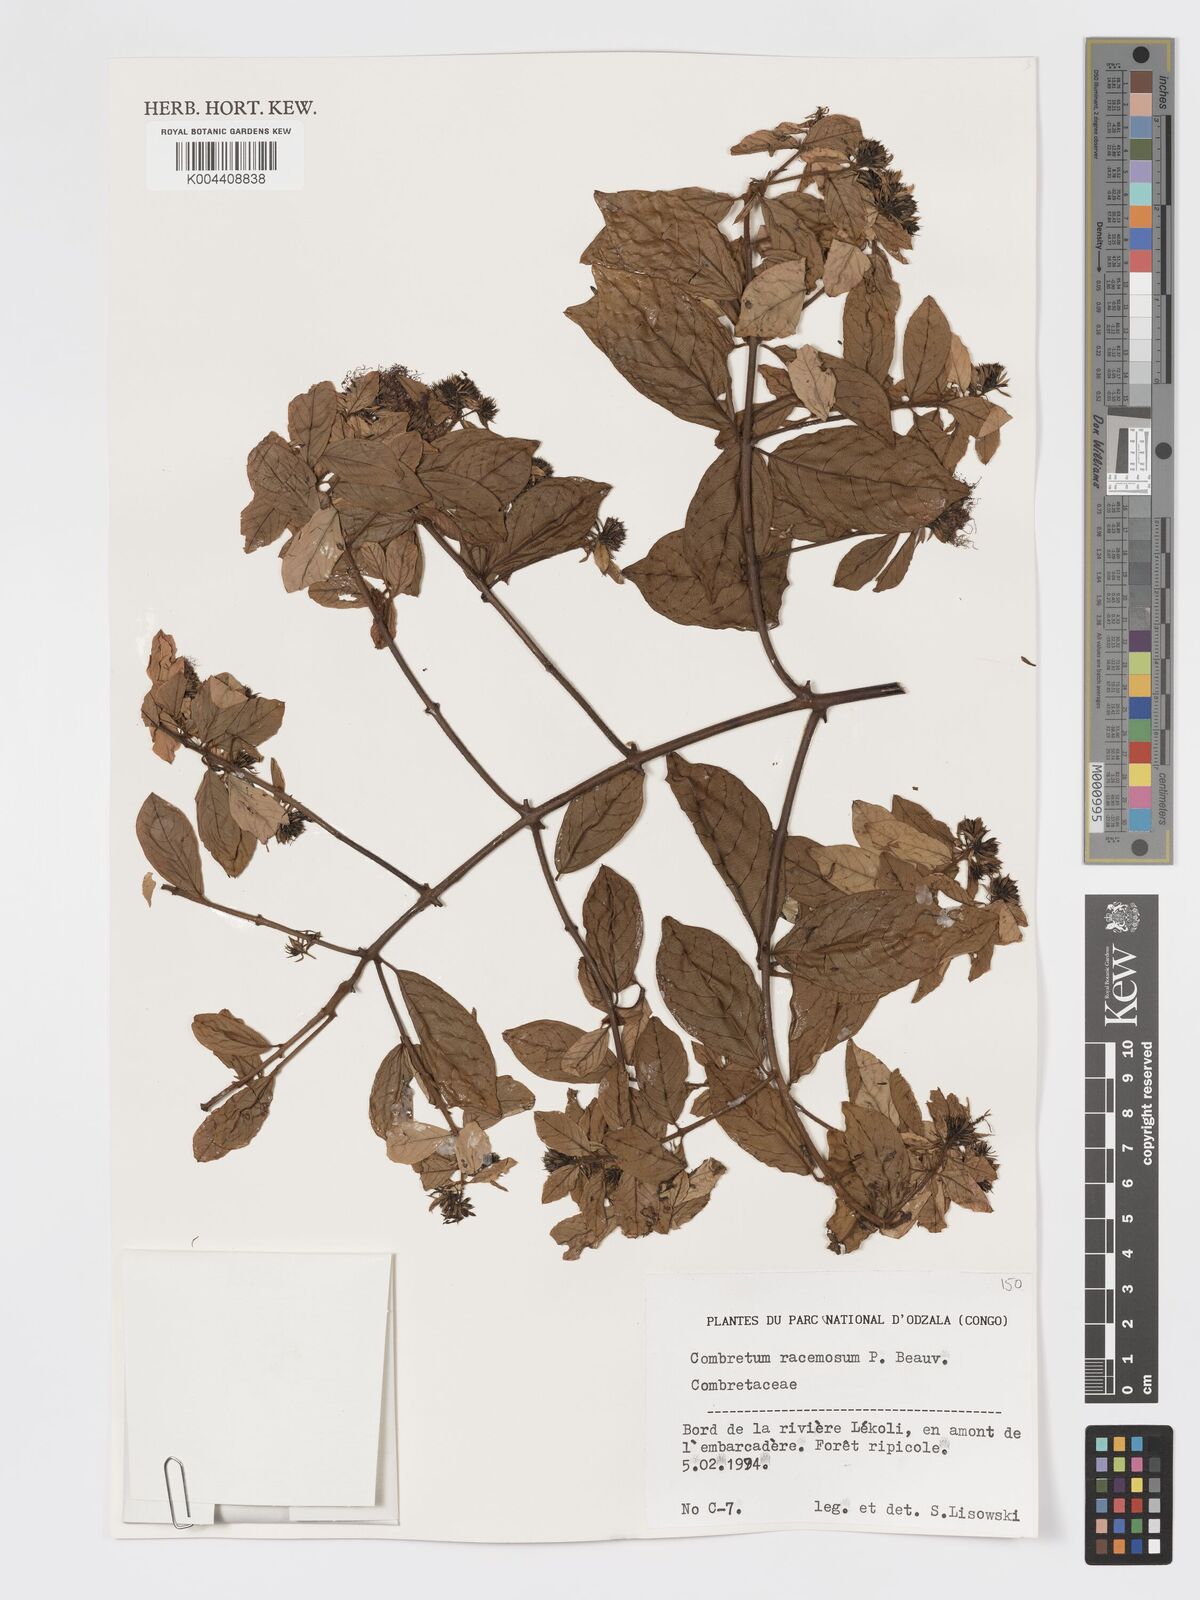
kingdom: Plantae
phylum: Tracheophyta
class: Magnoliopsida
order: Myrtales
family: Combretaceae
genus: Combretum
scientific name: Combretum racemosum
